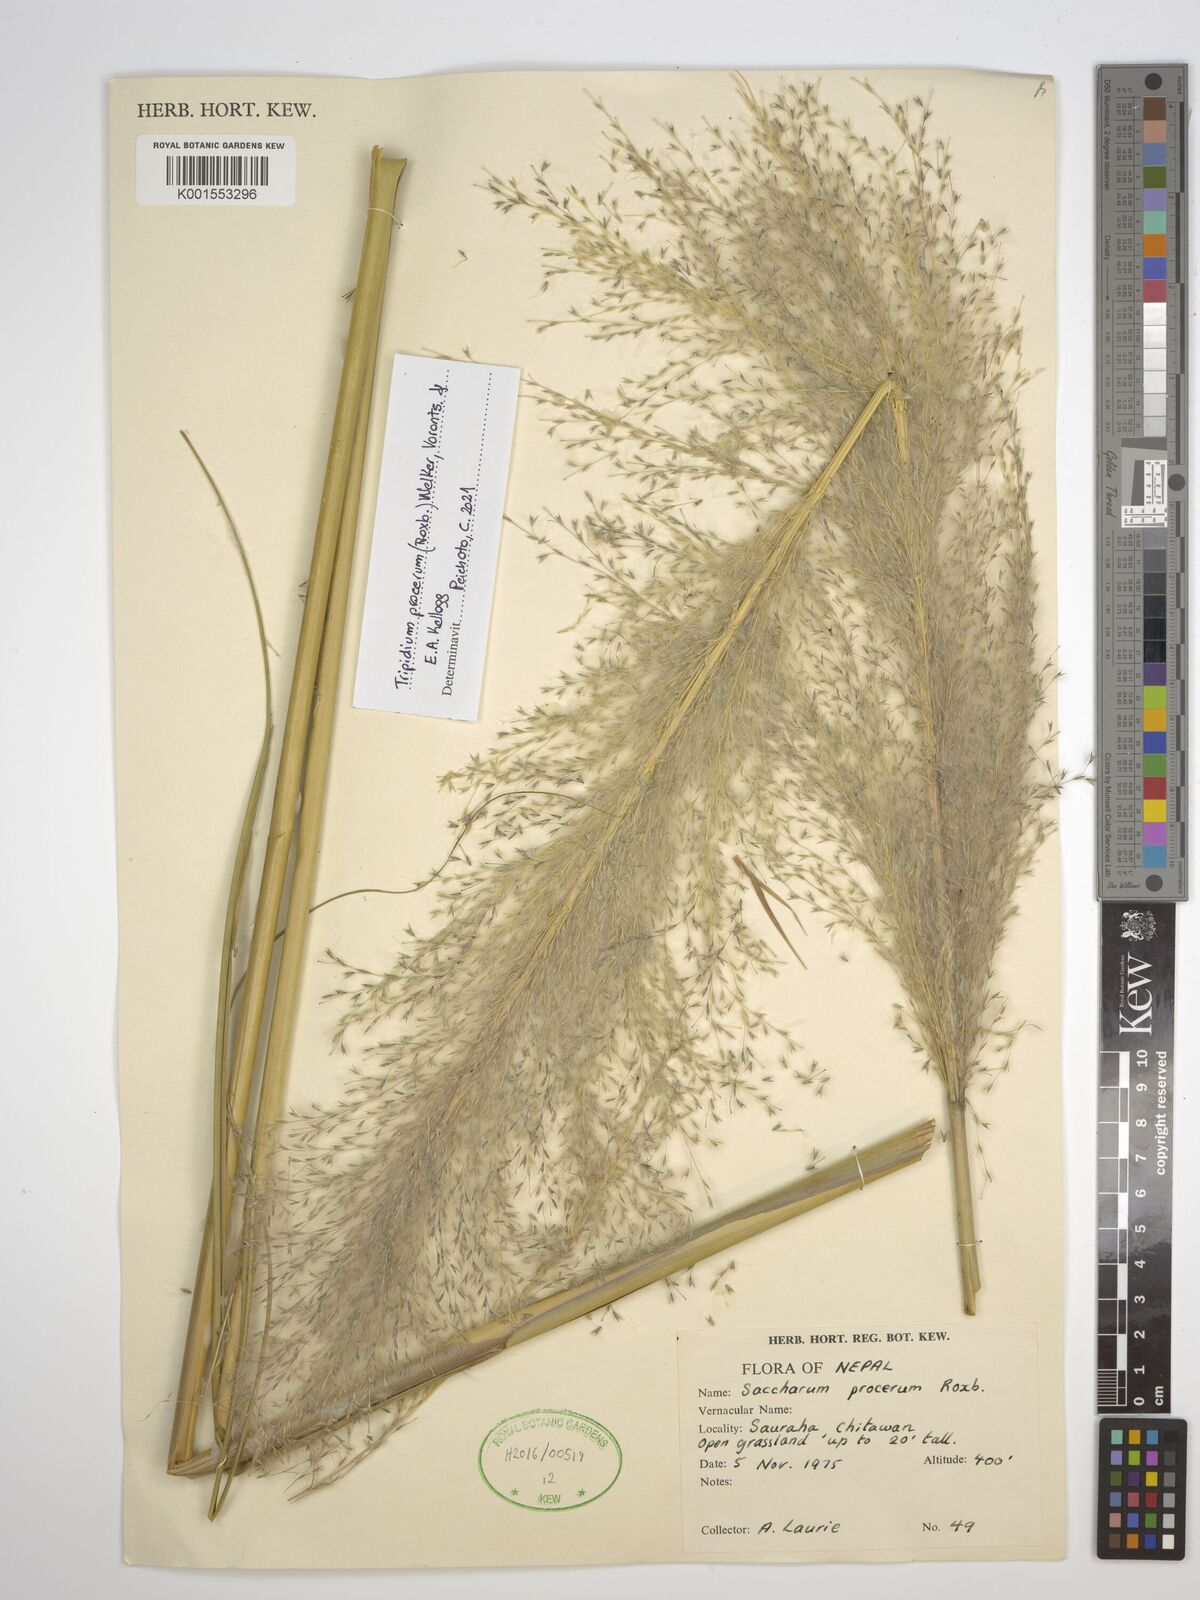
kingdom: Plantae
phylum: Tracheophyta
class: Liliopsida
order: Poales
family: Poaceae
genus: Tripidium
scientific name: Tripidium procerum
